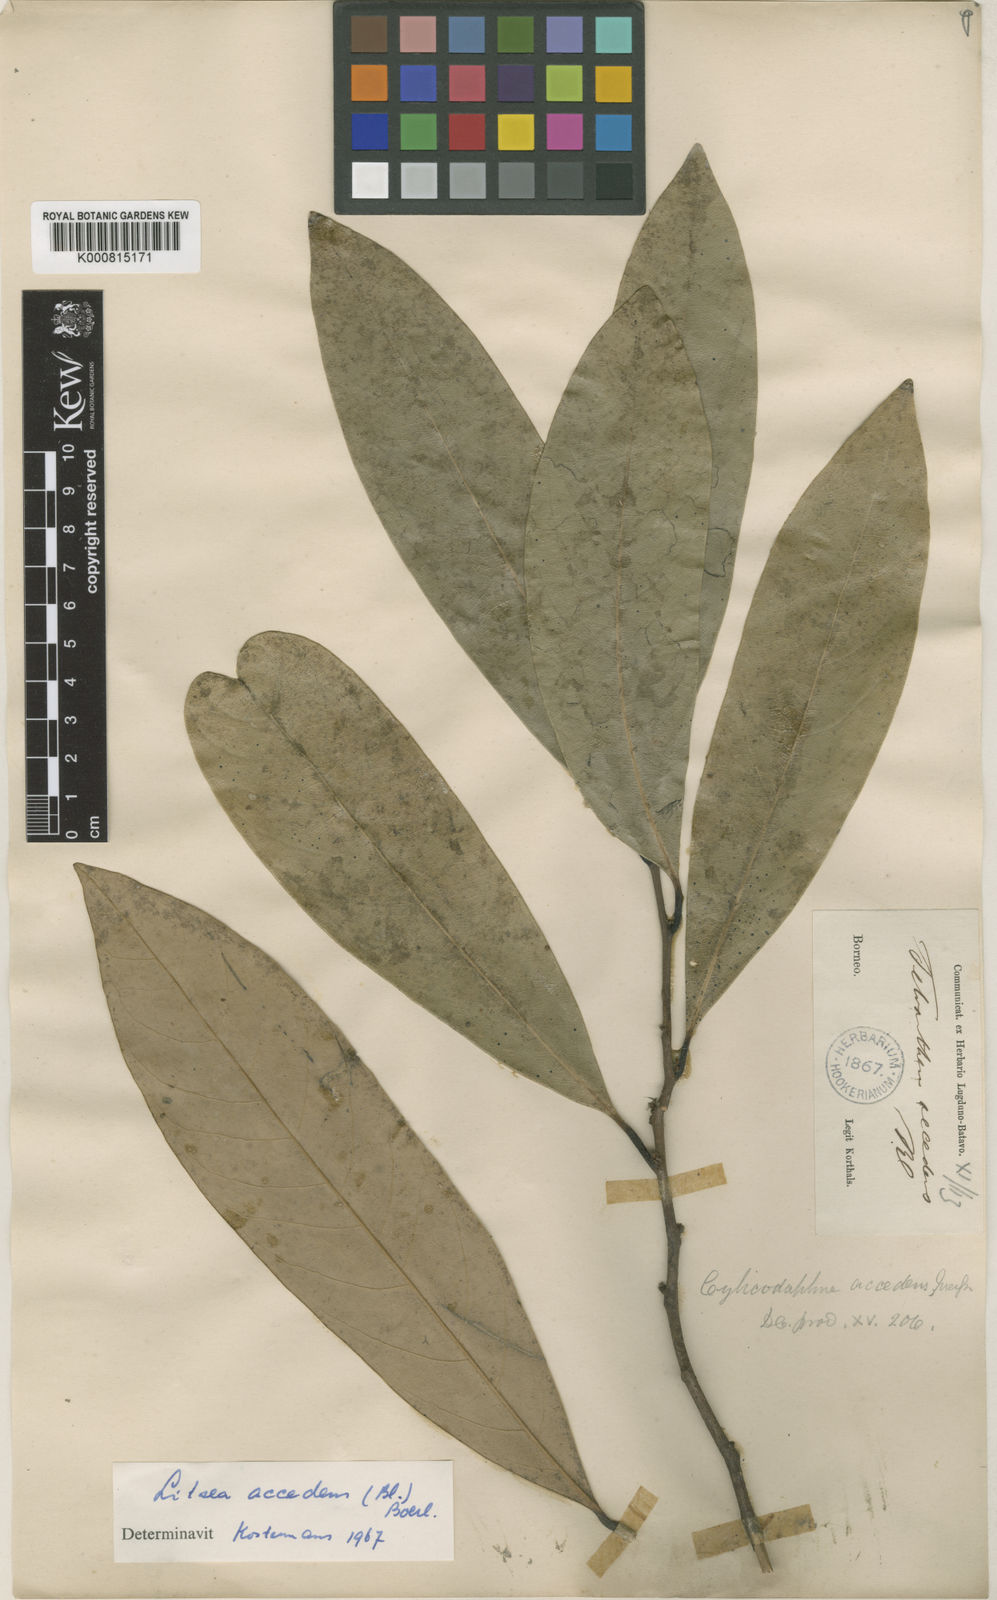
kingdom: Plantae
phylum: Tracheophyta
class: Magnoliopsida
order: Laurales
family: Lauraceae
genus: Litsea
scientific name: Litsea accedens
